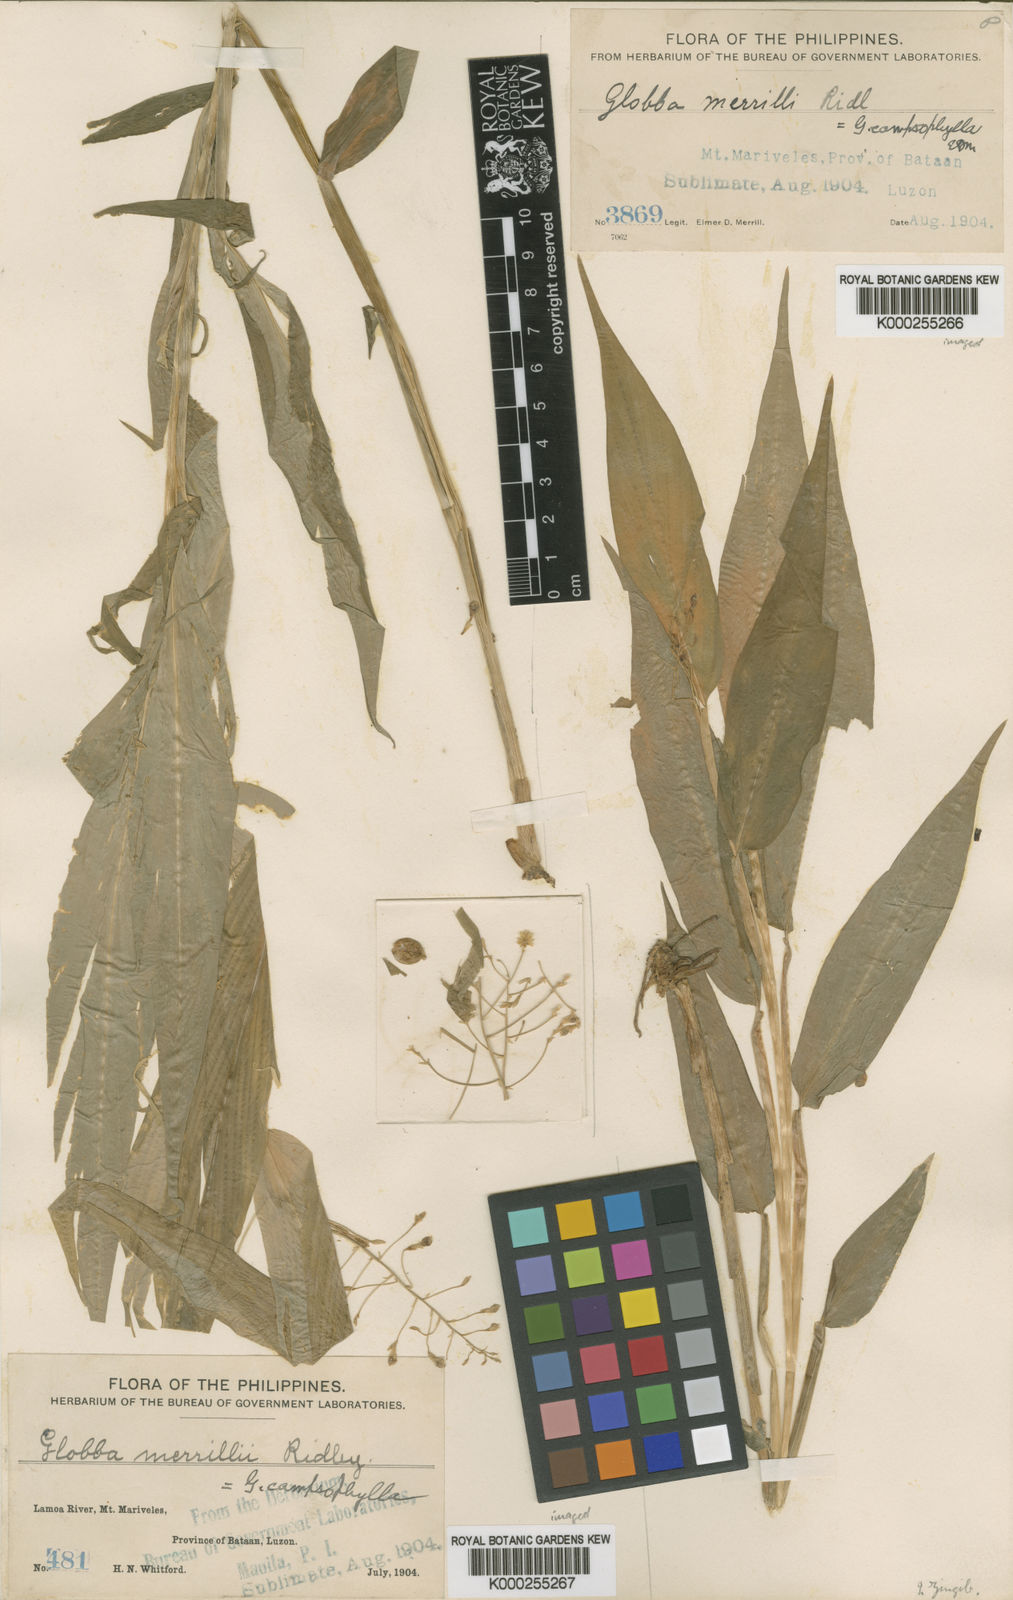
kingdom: Plantae
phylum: Tracheophyta
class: Liliopsida
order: Zingiberales
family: Zingiberaceae
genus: Globba
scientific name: Globba campsophylla
